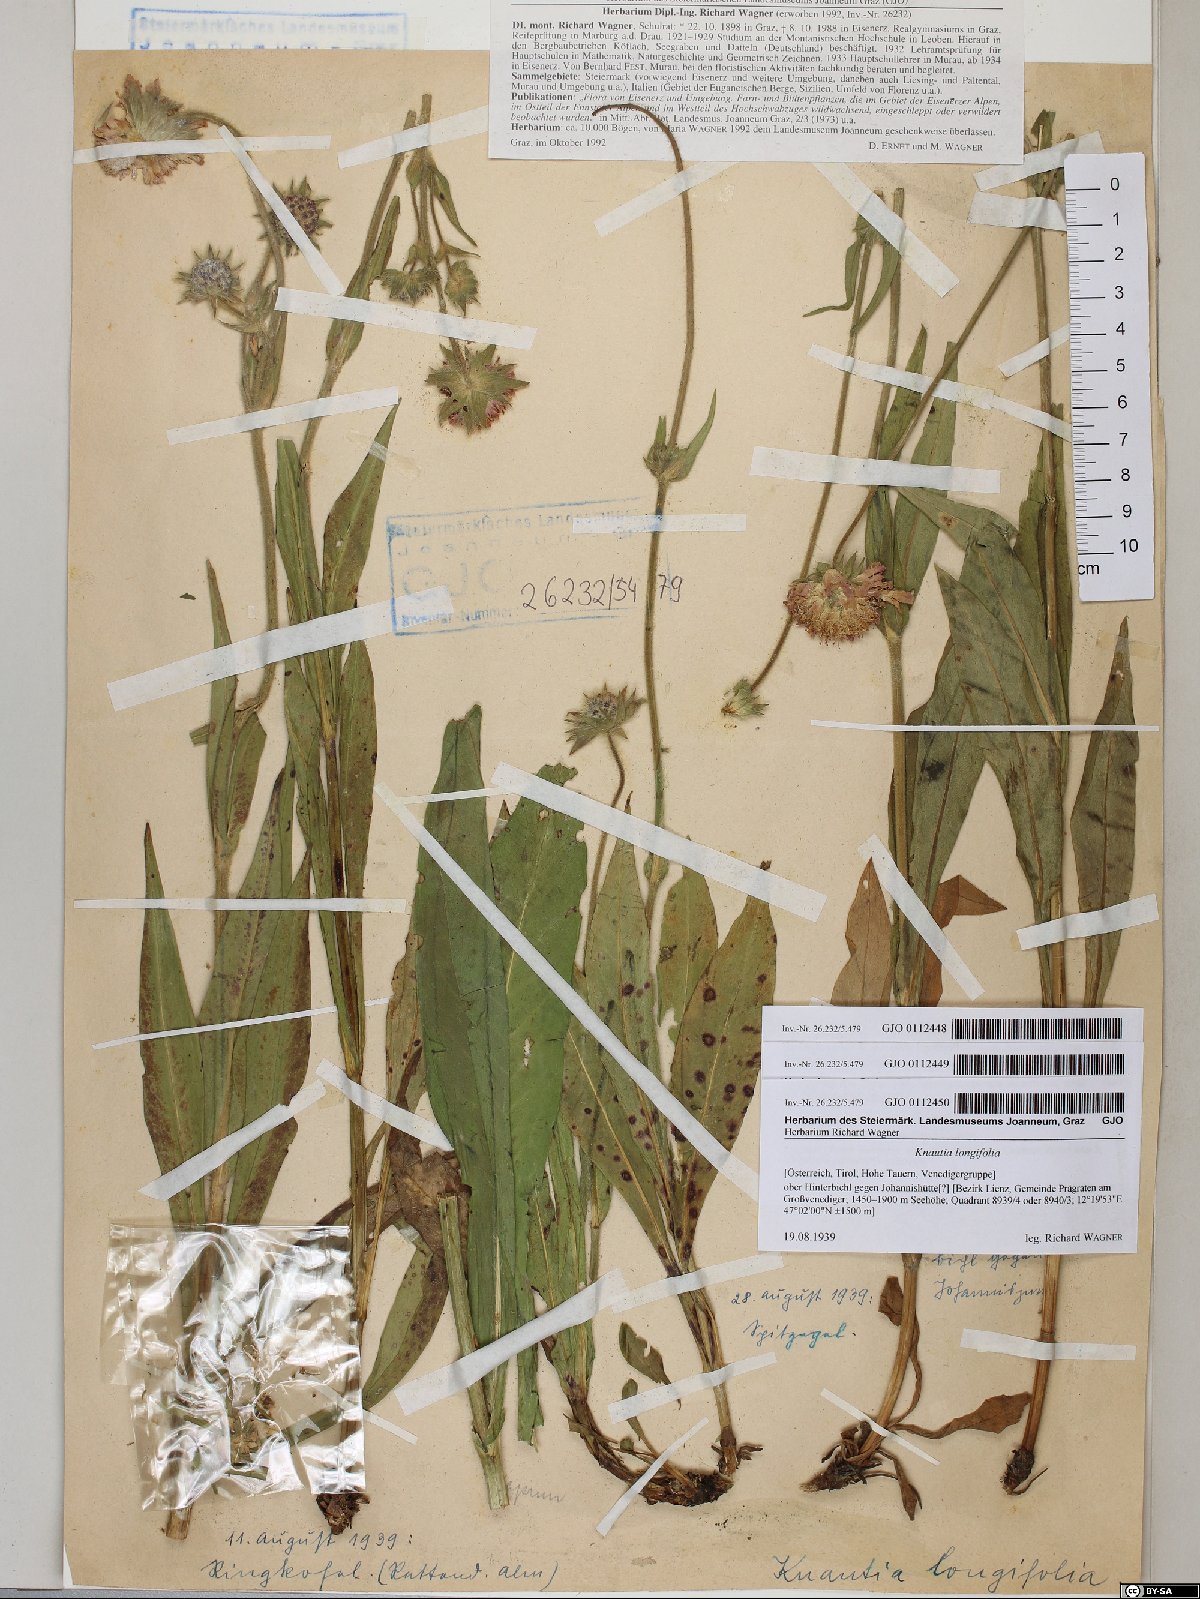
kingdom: Plantae
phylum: Tracheophyta
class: Magnoliopsida
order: Dipsacales
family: Caprifoliaceae
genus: Knautia
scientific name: Knautia longifolia
